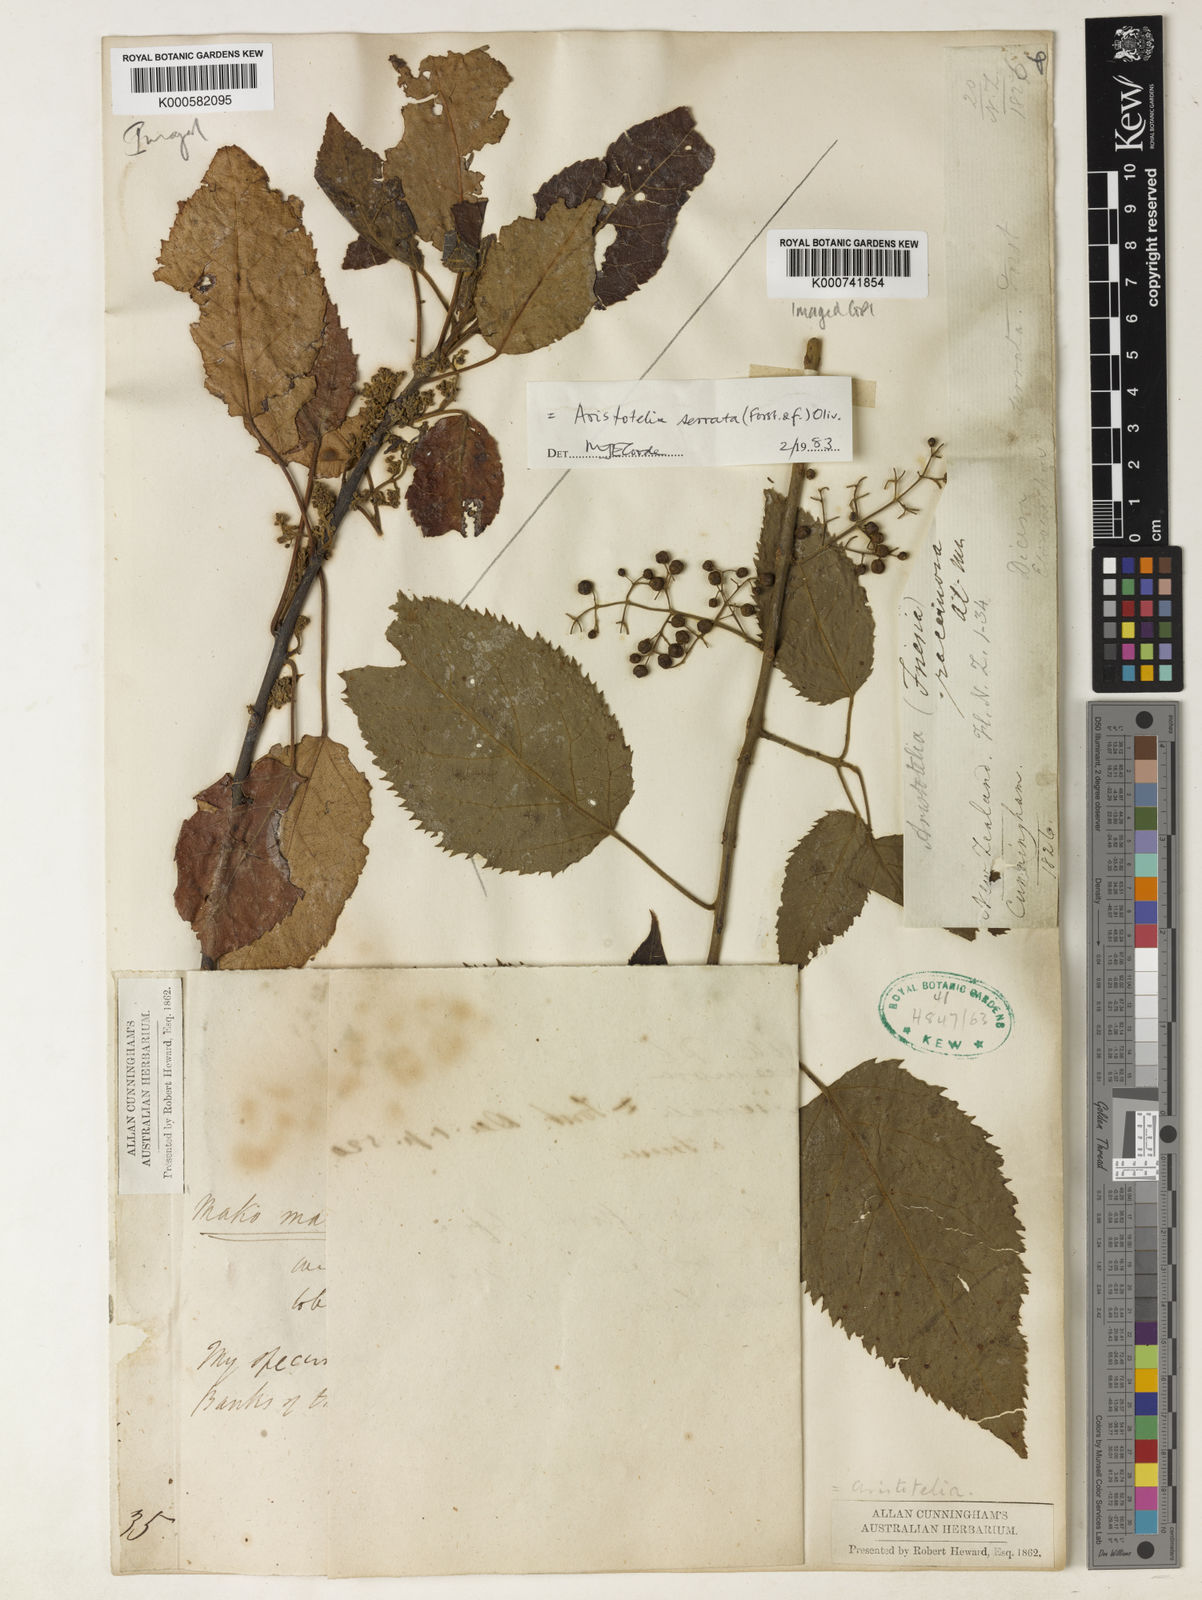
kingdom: Plantae
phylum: Tracheophyta
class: Magnoliopsida
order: Oxalidales
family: Elaeocarpaceae
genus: Aristotelia
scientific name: Aristotelia serrata
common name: New zealand wineberry
